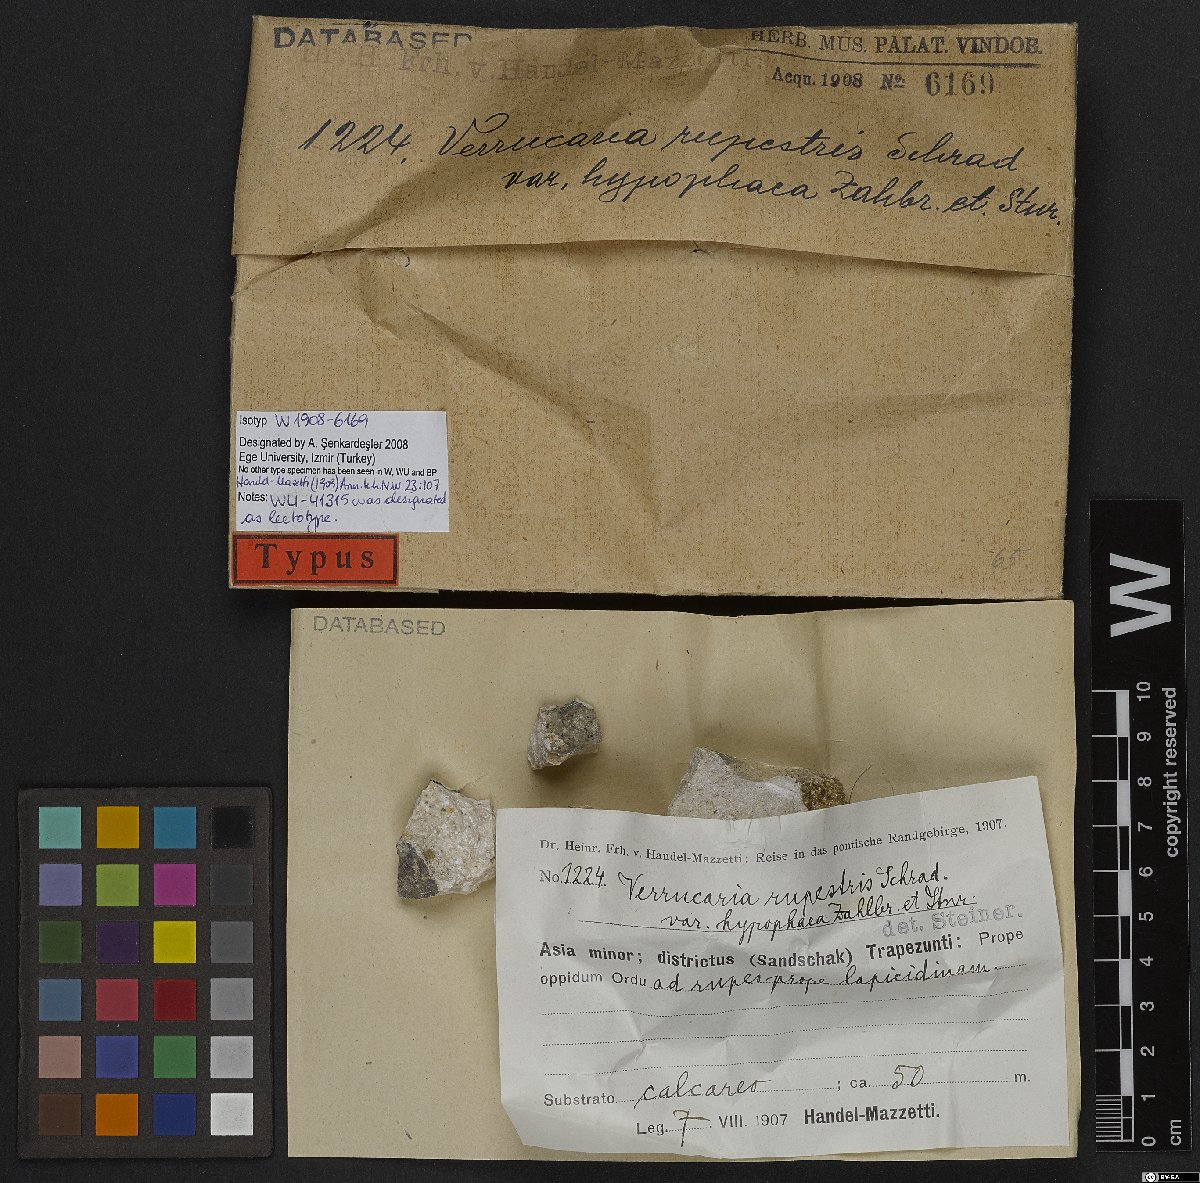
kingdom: Fungi
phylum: Ascomycota
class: Eurotiomycetes
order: Verrucariales
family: Verrucariaceae
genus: Verrucaria
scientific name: Verrucaria subtilis
